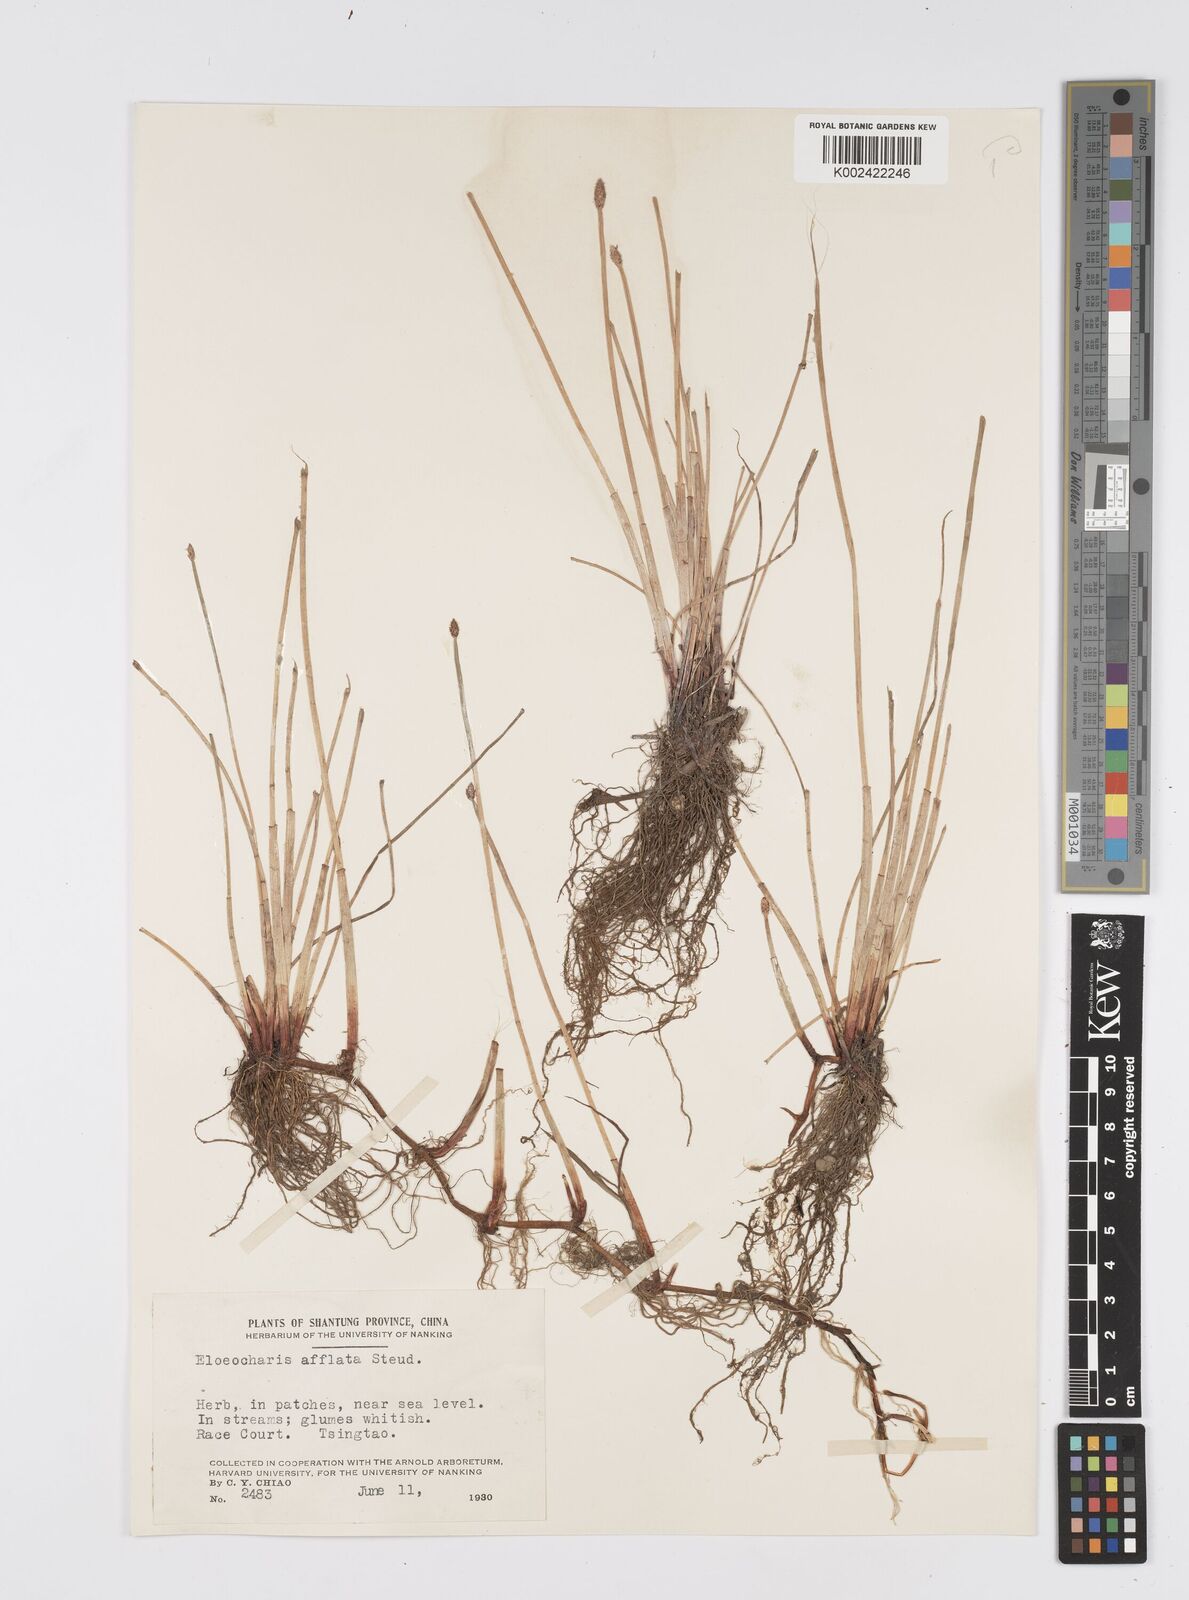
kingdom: Plantae
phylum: Tracheophyta
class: Liliopsida
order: Poales
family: Cyperaceae
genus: Eleocharis
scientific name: Eleocharis pellucida
